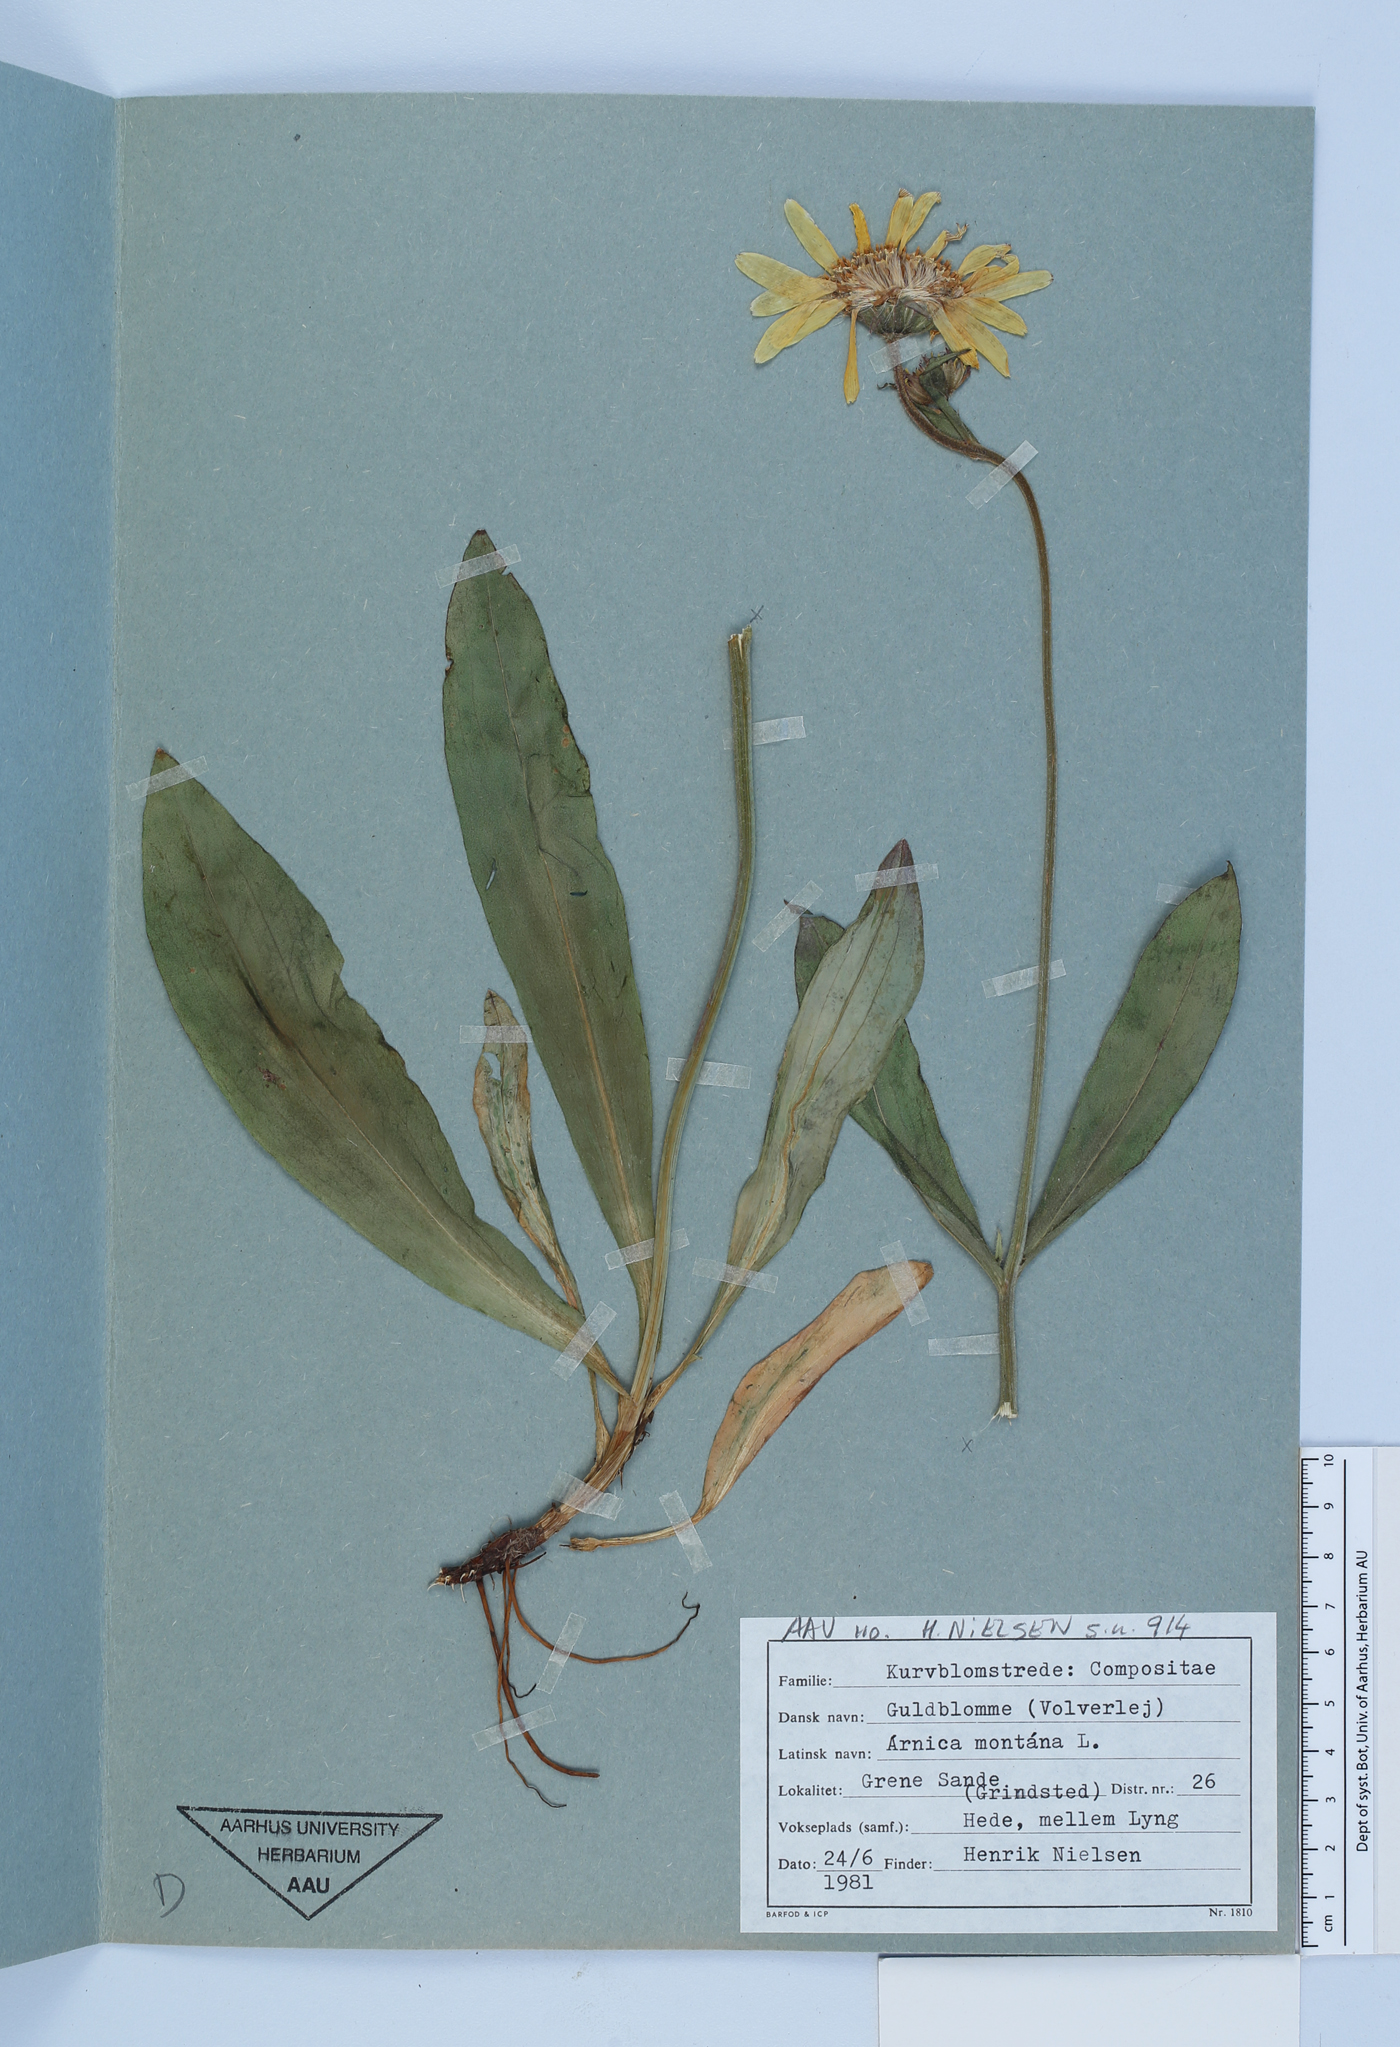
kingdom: Plantae
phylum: Tracheophyta
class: Magnoliopsida
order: Asterales
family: Asteraceae
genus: Arnica
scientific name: Arnica montana
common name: Leopard's bane
